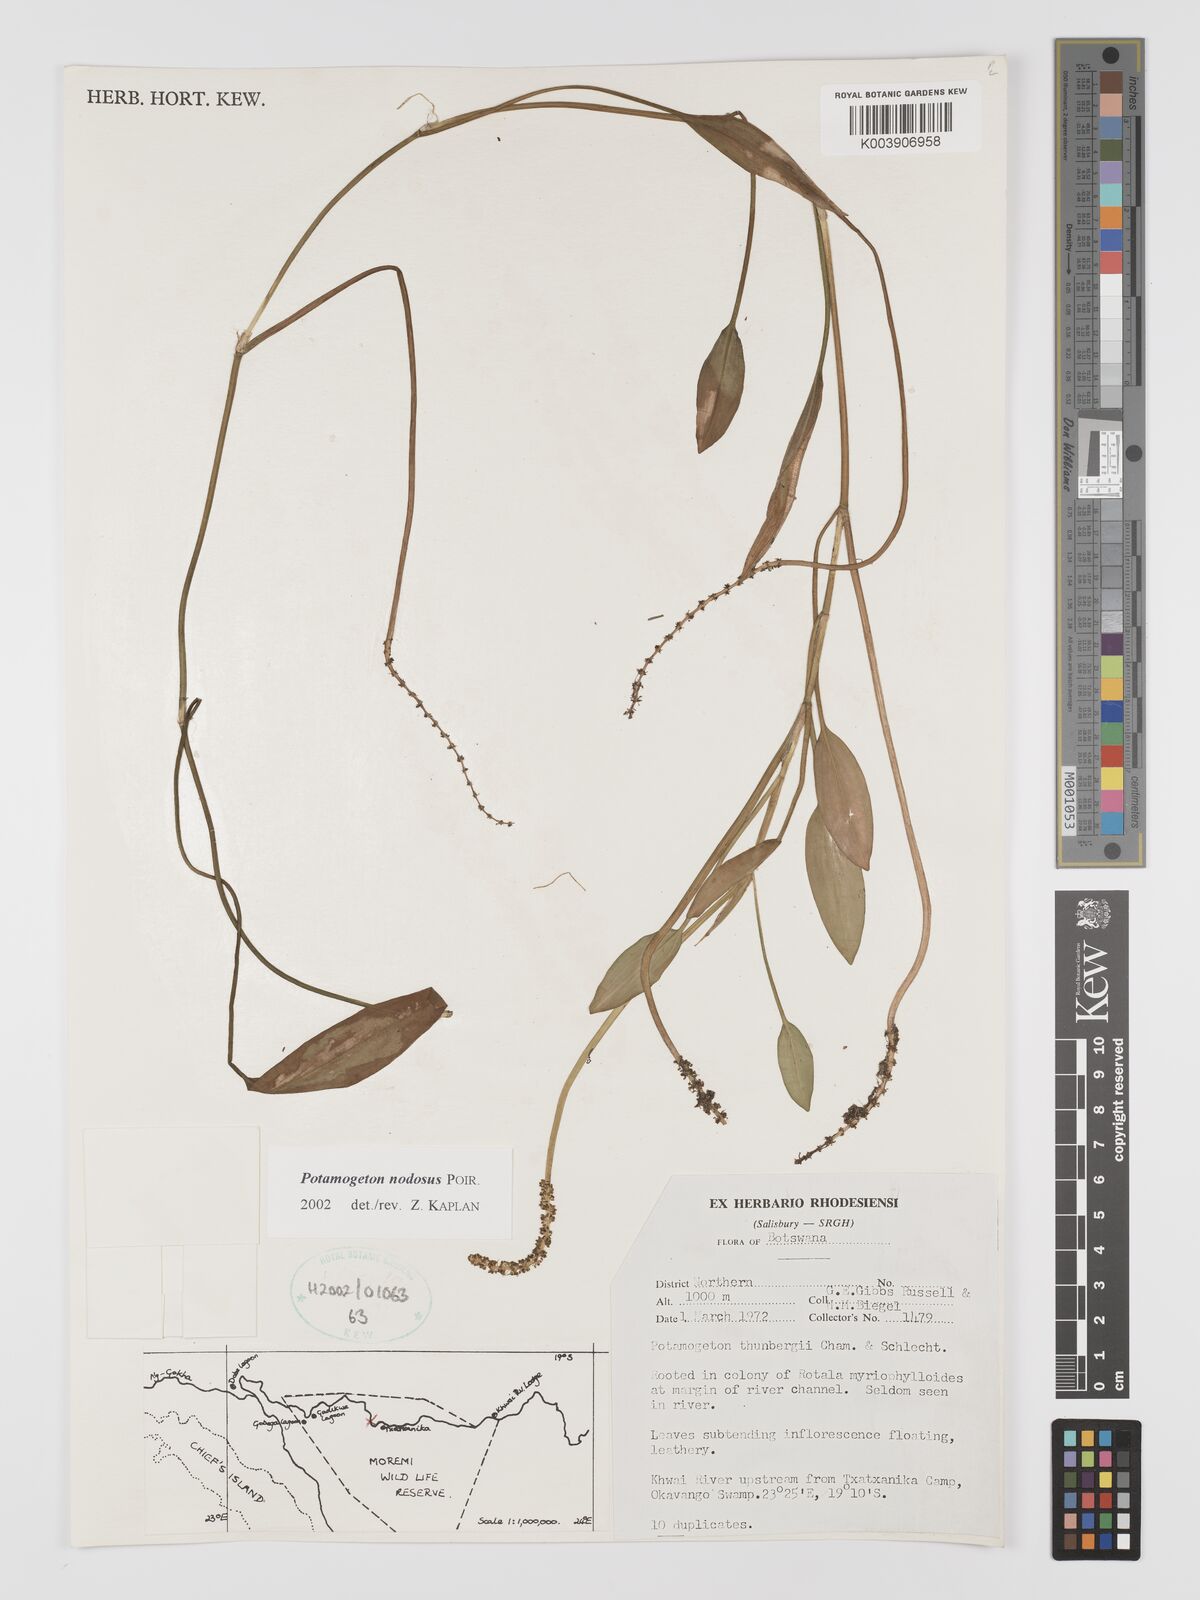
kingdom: Plantae
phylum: Tracheophyta
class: Liliopsida
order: Alismatales
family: Potamogetonaceae
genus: Potamogeton
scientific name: Potamogeton nodosus
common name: Loddon pondweed
